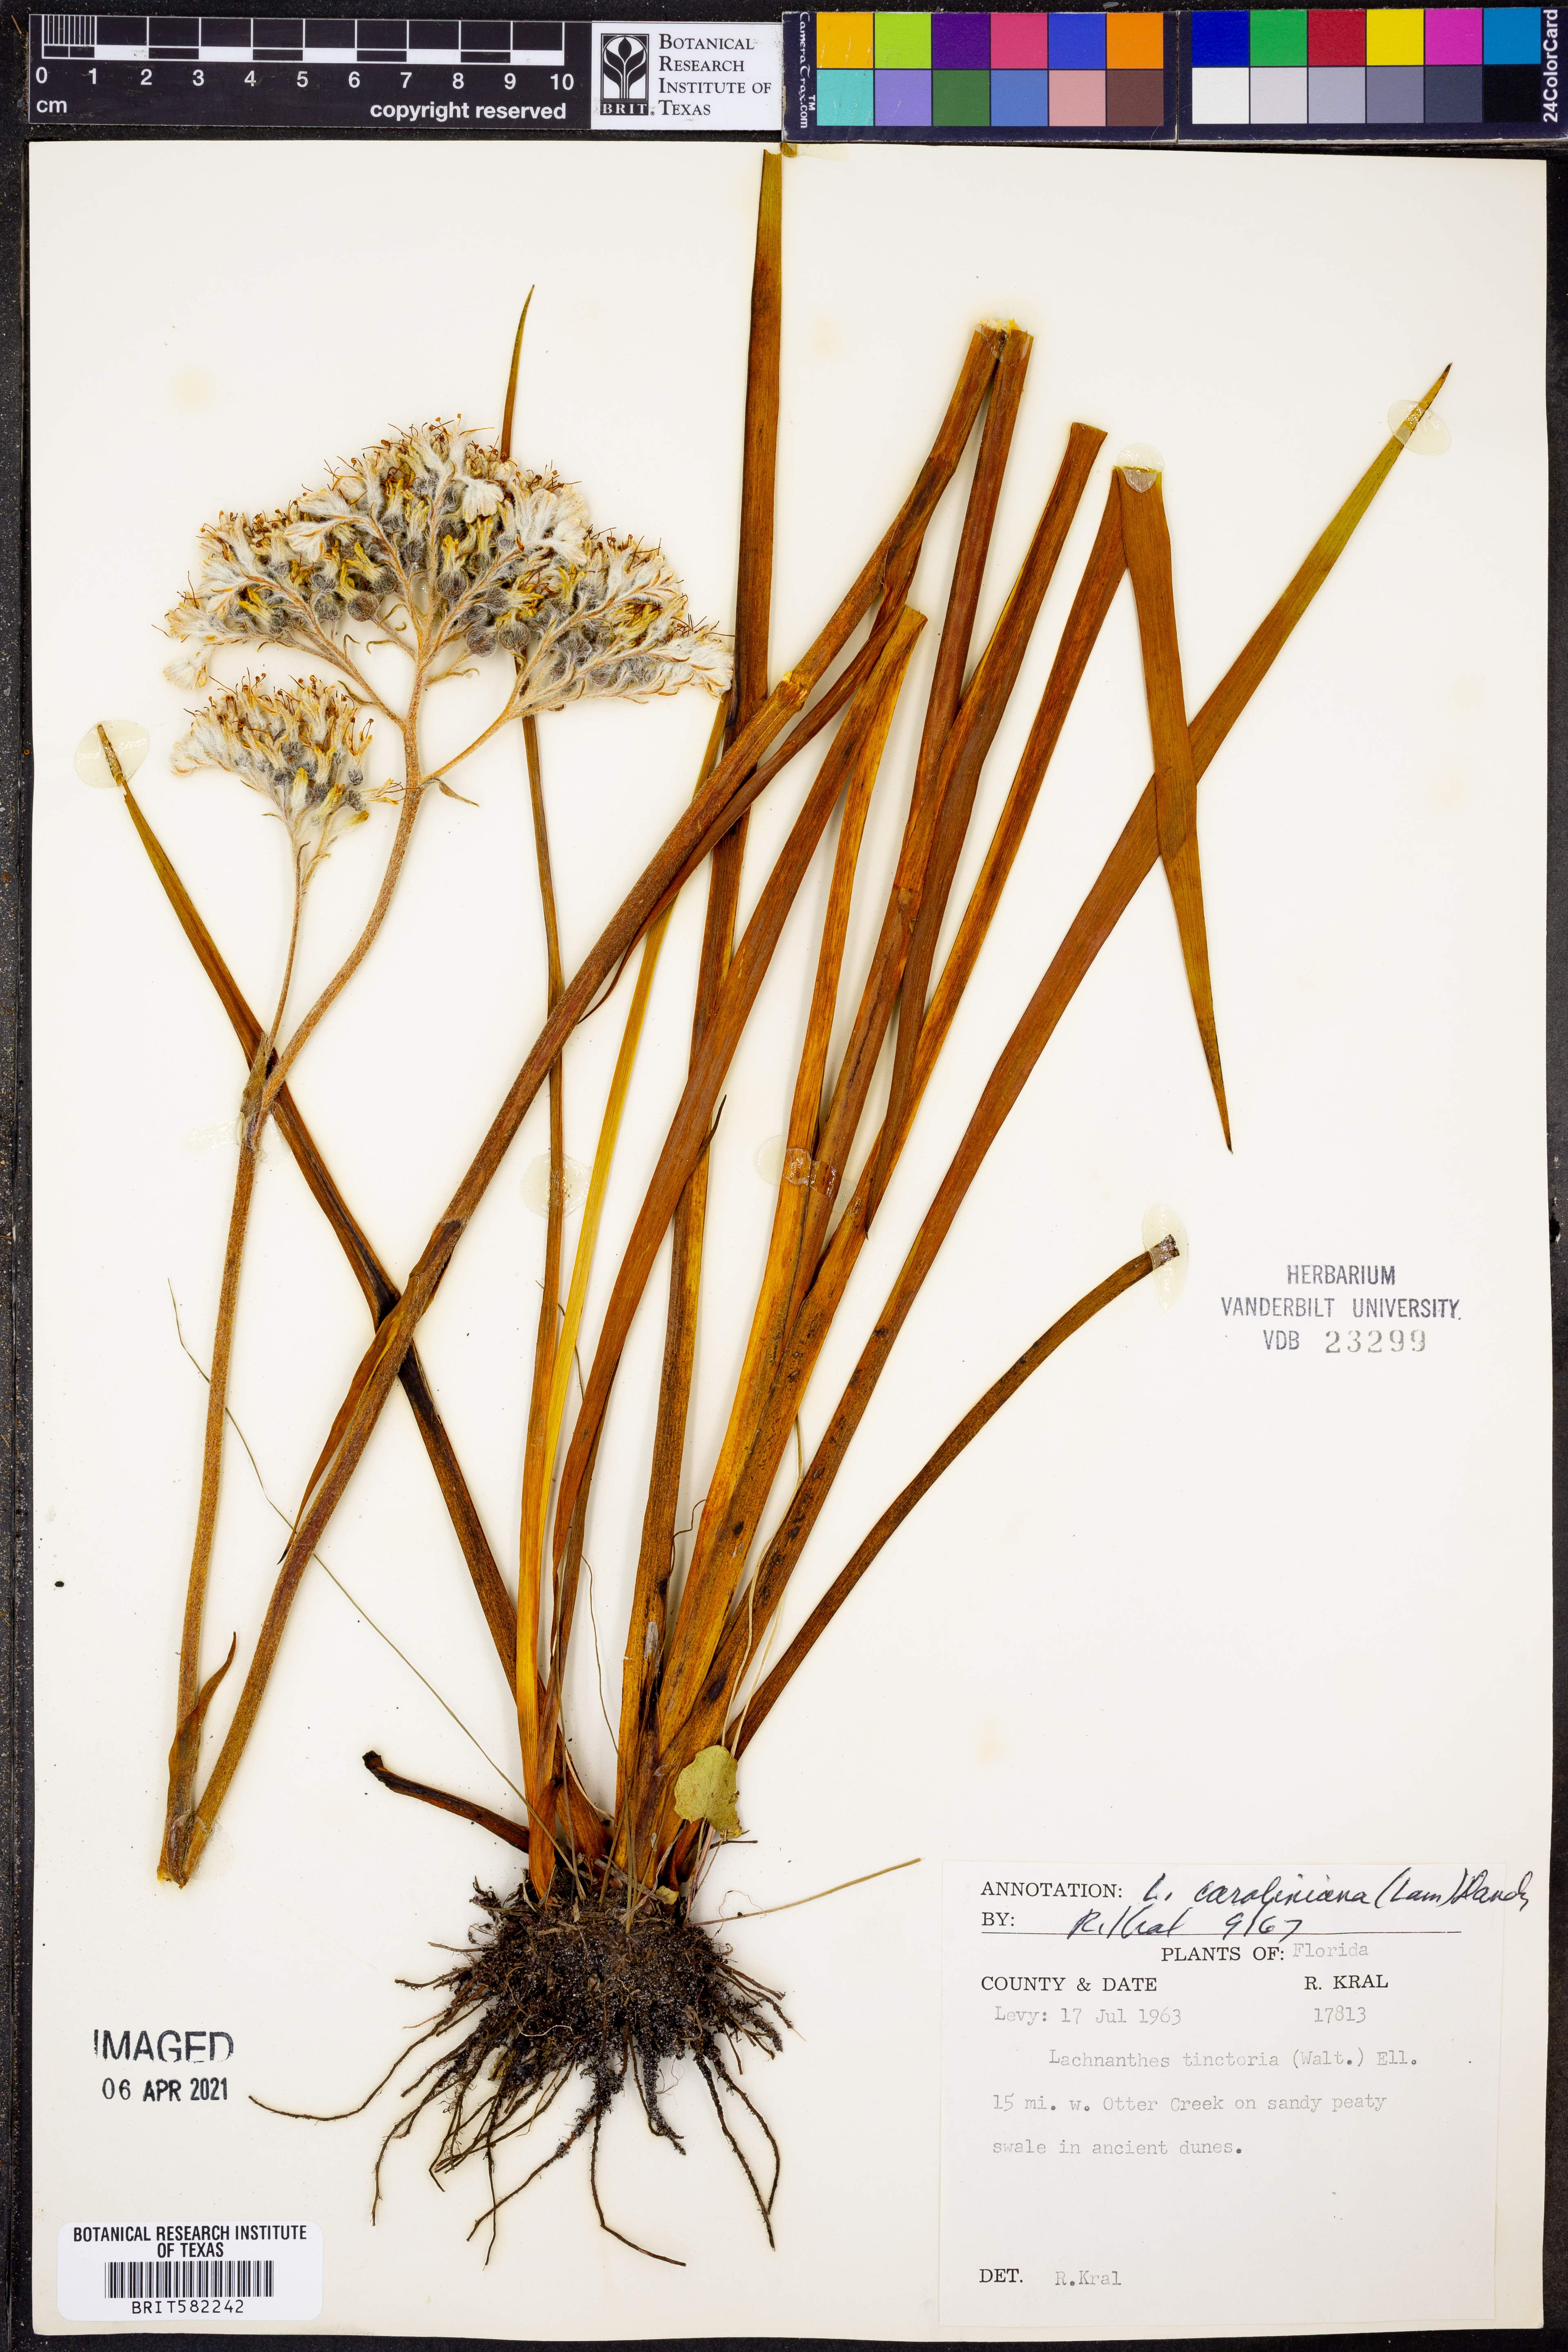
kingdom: Plantae
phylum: Tracheophyta
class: Liliopsida
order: Commelinales
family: Haemodoraceae
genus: Lachnanthes
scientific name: Lachnanthes caroliniana
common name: Carolina redroot
